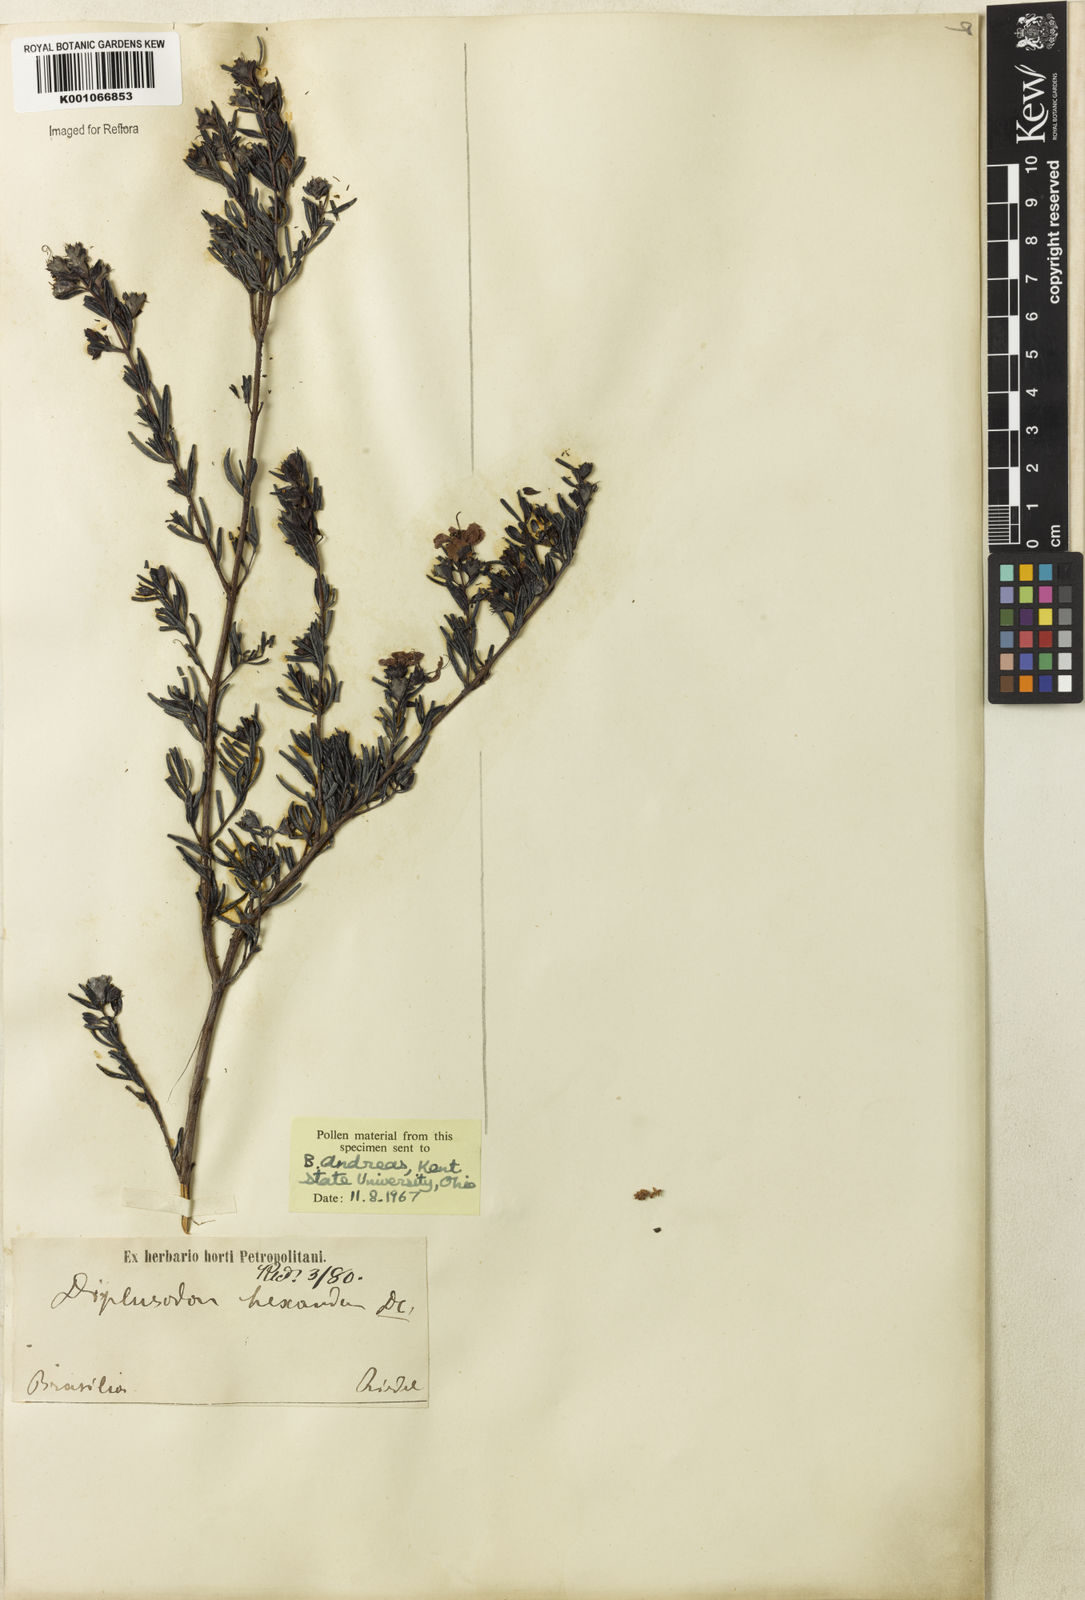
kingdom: Plantae
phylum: Tracheophyta
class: Magnoliopsida
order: Myrtales
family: Lythraceae
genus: Diplusodon
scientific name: Diplusodon hexander
